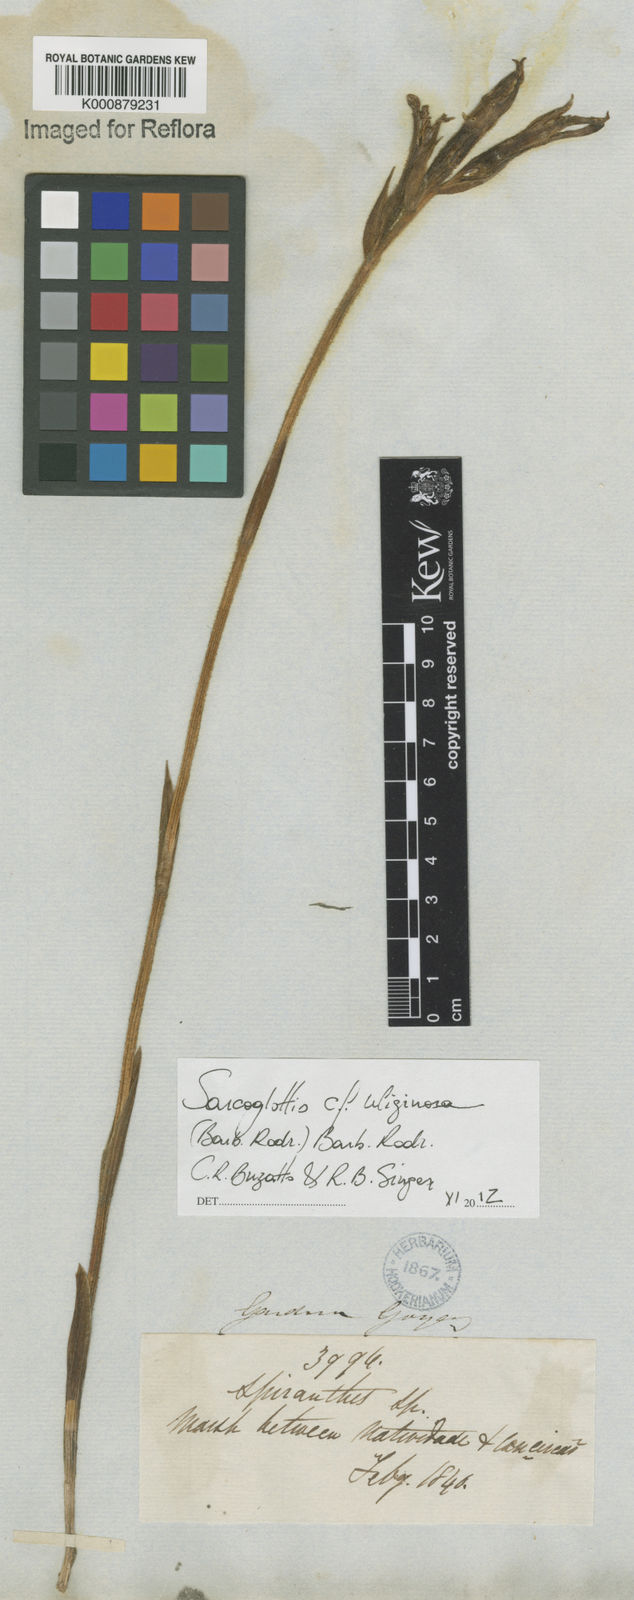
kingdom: Plantae
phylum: Tracheophyta
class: Liliopsida
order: Asparagales
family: Orchidaceae
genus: Sarcoglottis
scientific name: Sarcoglottis uliginosa
